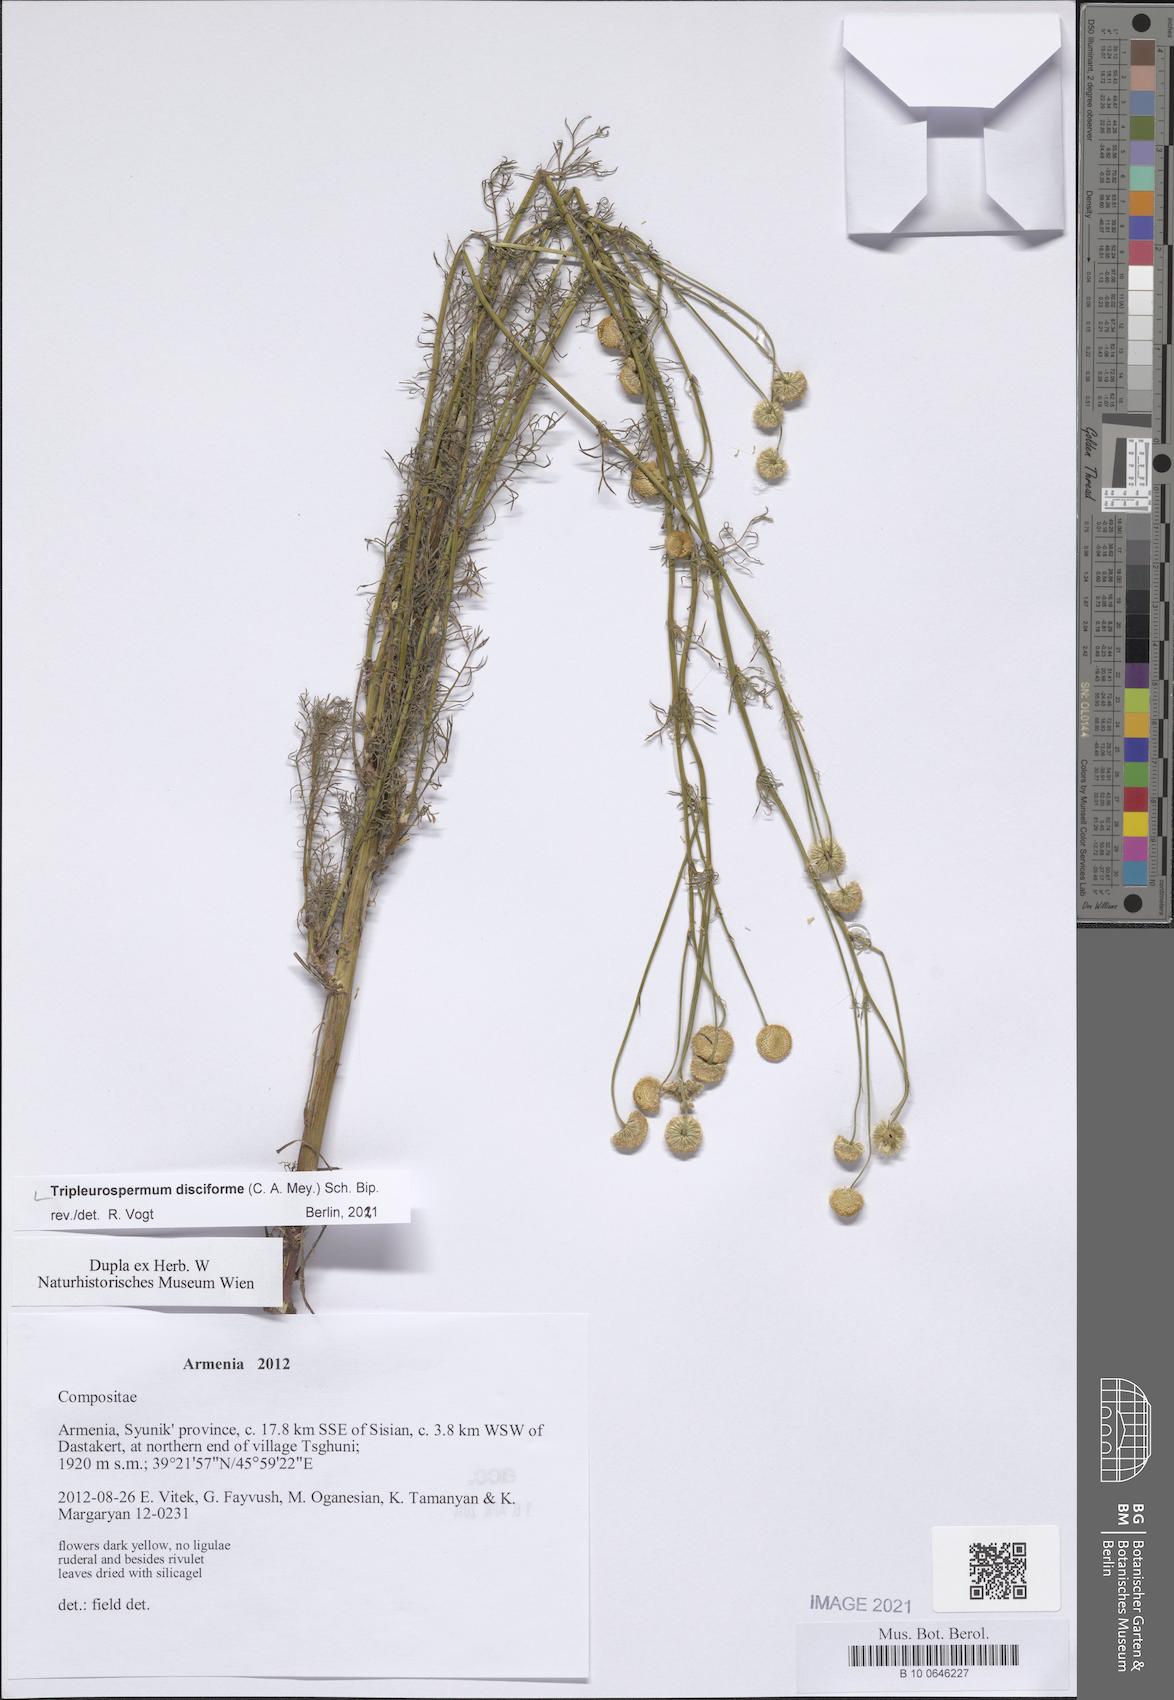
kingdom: Plantae
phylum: Tracheophyta
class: Magnoliopsida
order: Asterales
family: Asteraceae
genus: Tripleurospermum
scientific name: Tripleurospermum disciforme
